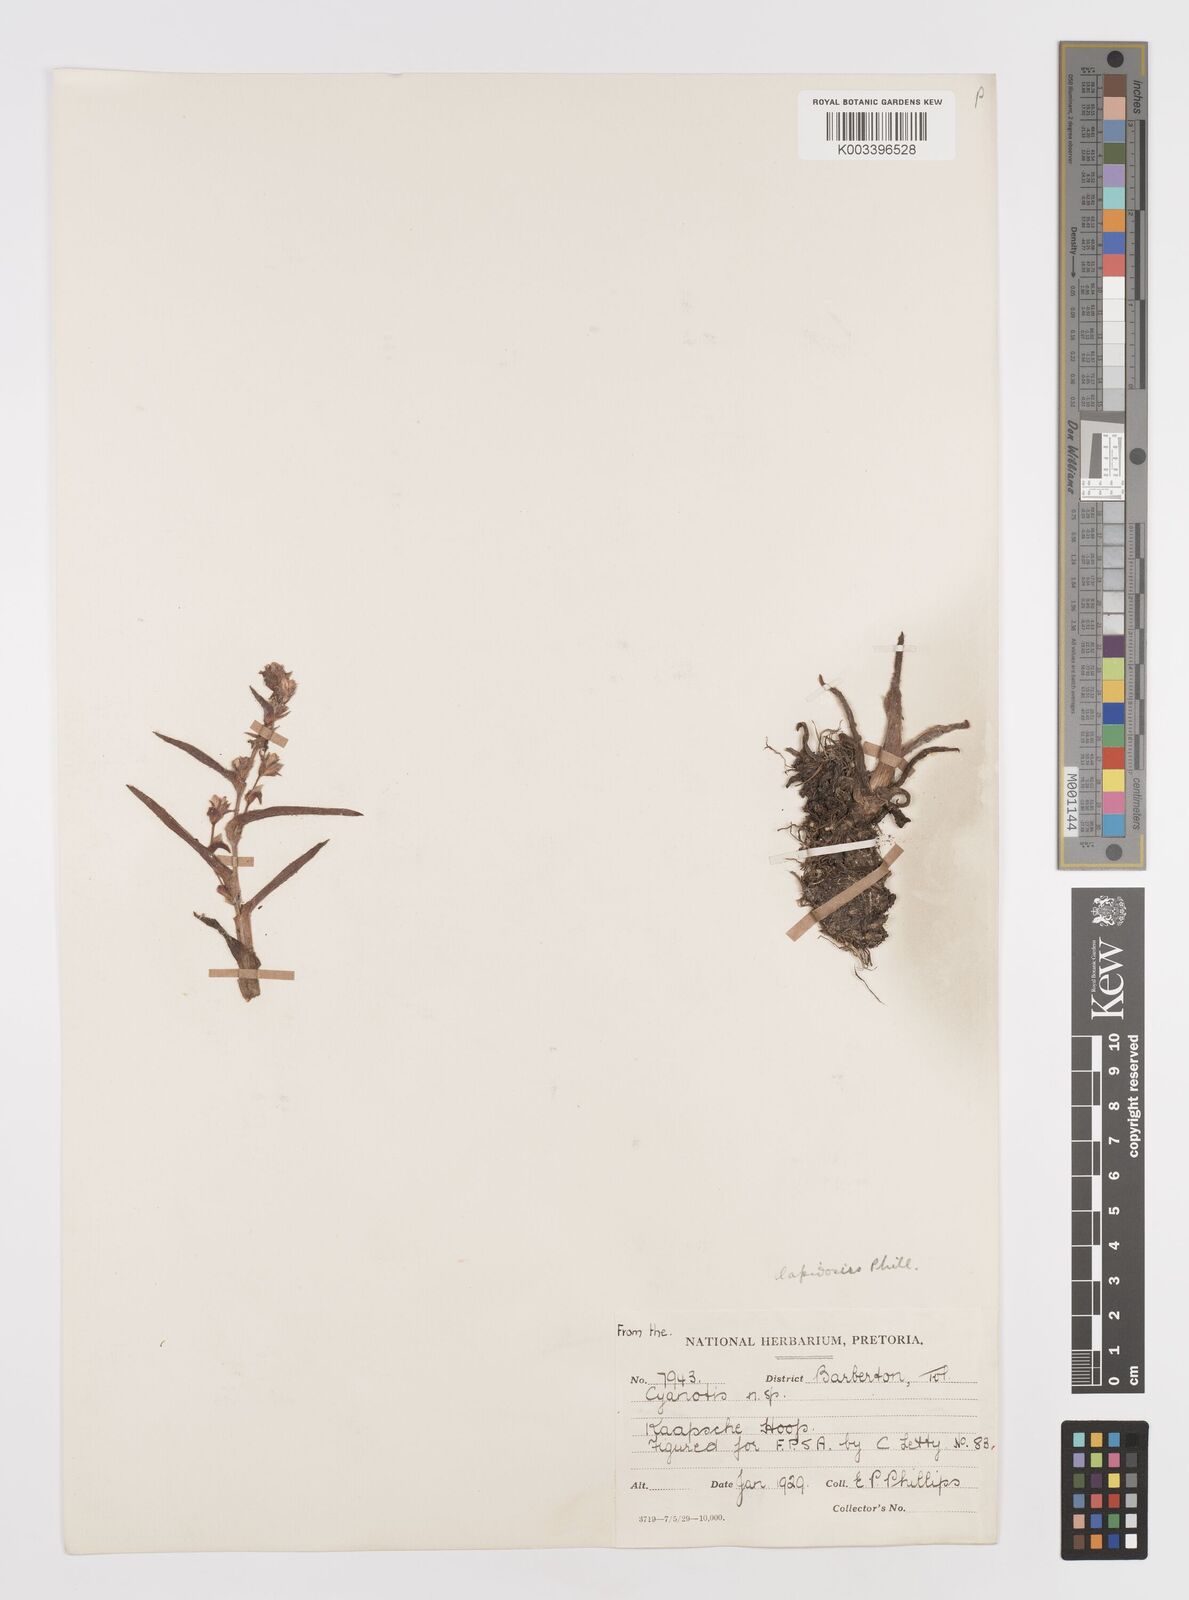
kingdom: Plantae
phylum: Tracheophyta
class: Liliopsida
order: Commelinales
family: Commelinaceae
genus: Cyanotis
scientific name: Cyanotis lapidosa
